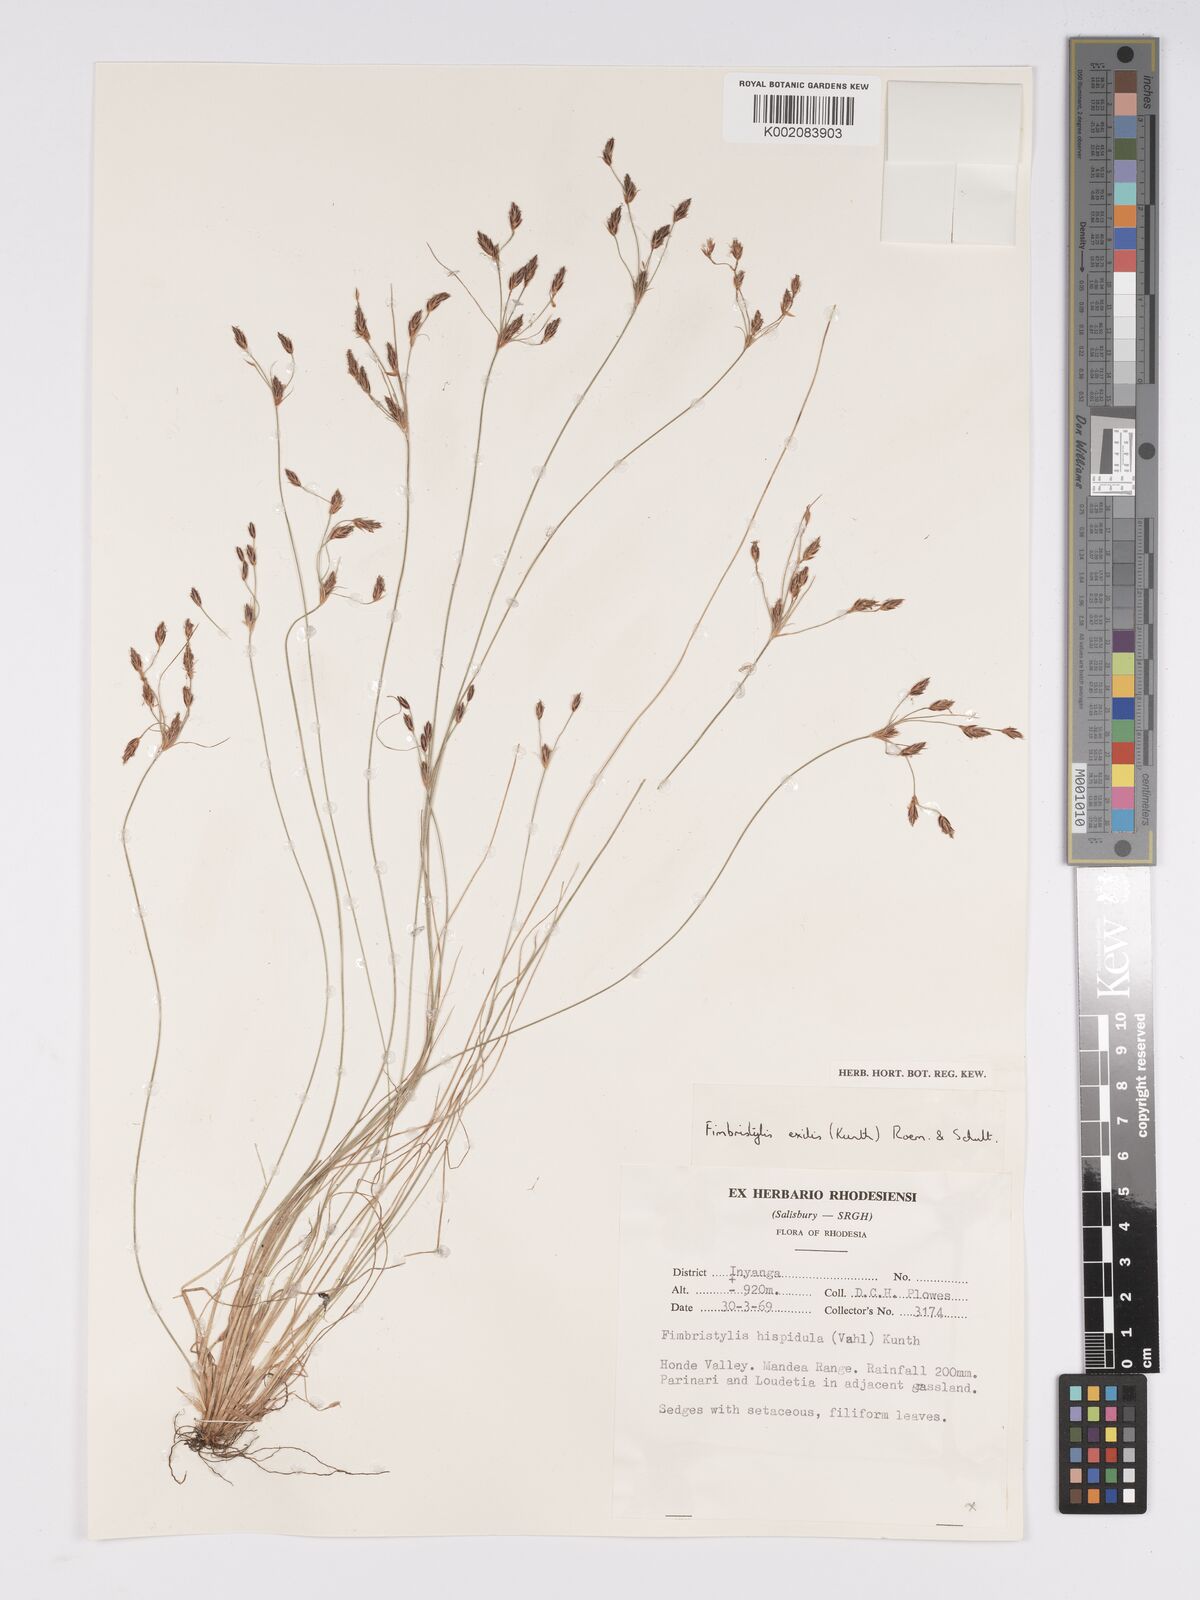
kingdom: Plantae
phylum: Tracheophyta
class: Liliopsida
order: Poales
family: Cyperaceae
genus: Bulbostylis
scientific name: Bulbostylis hispidula
